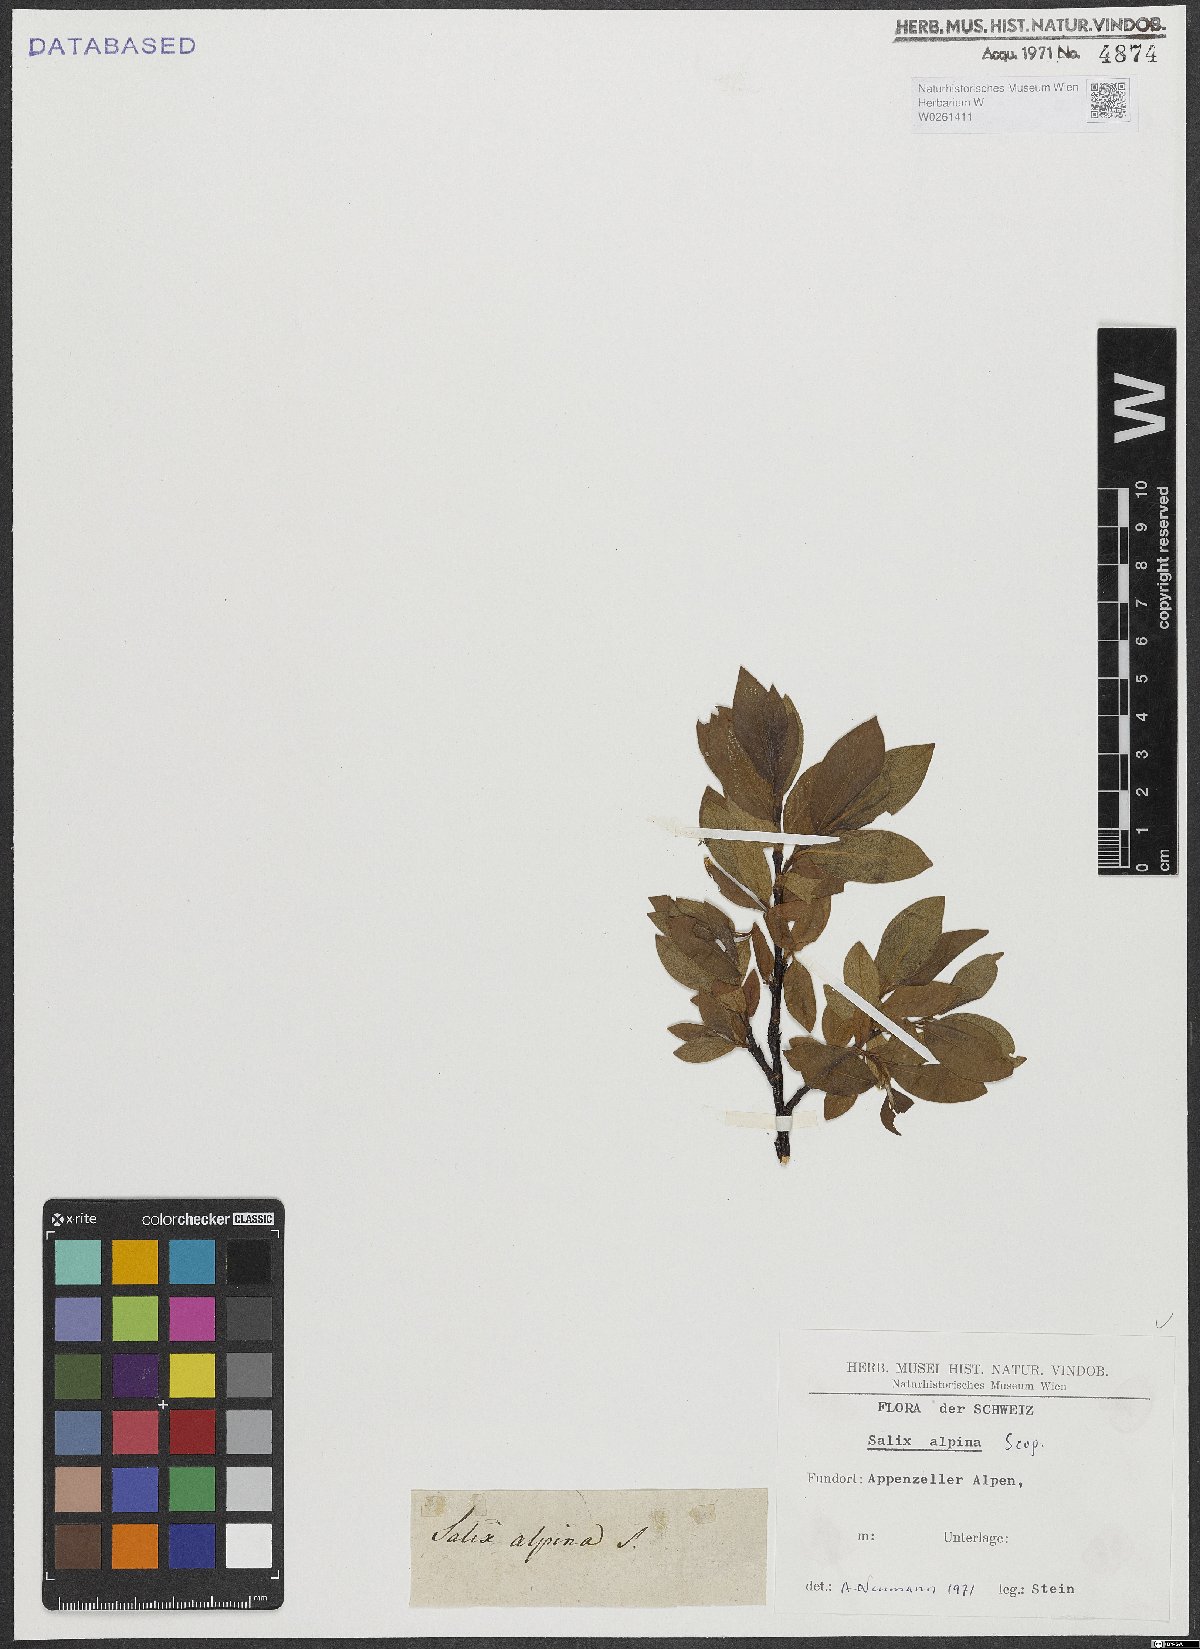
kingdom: Plantae
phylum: Tracheophyta
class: Magnoliopsida
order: Malpighiales
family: Salicaceae
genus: Salix
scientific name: Salix alpina
